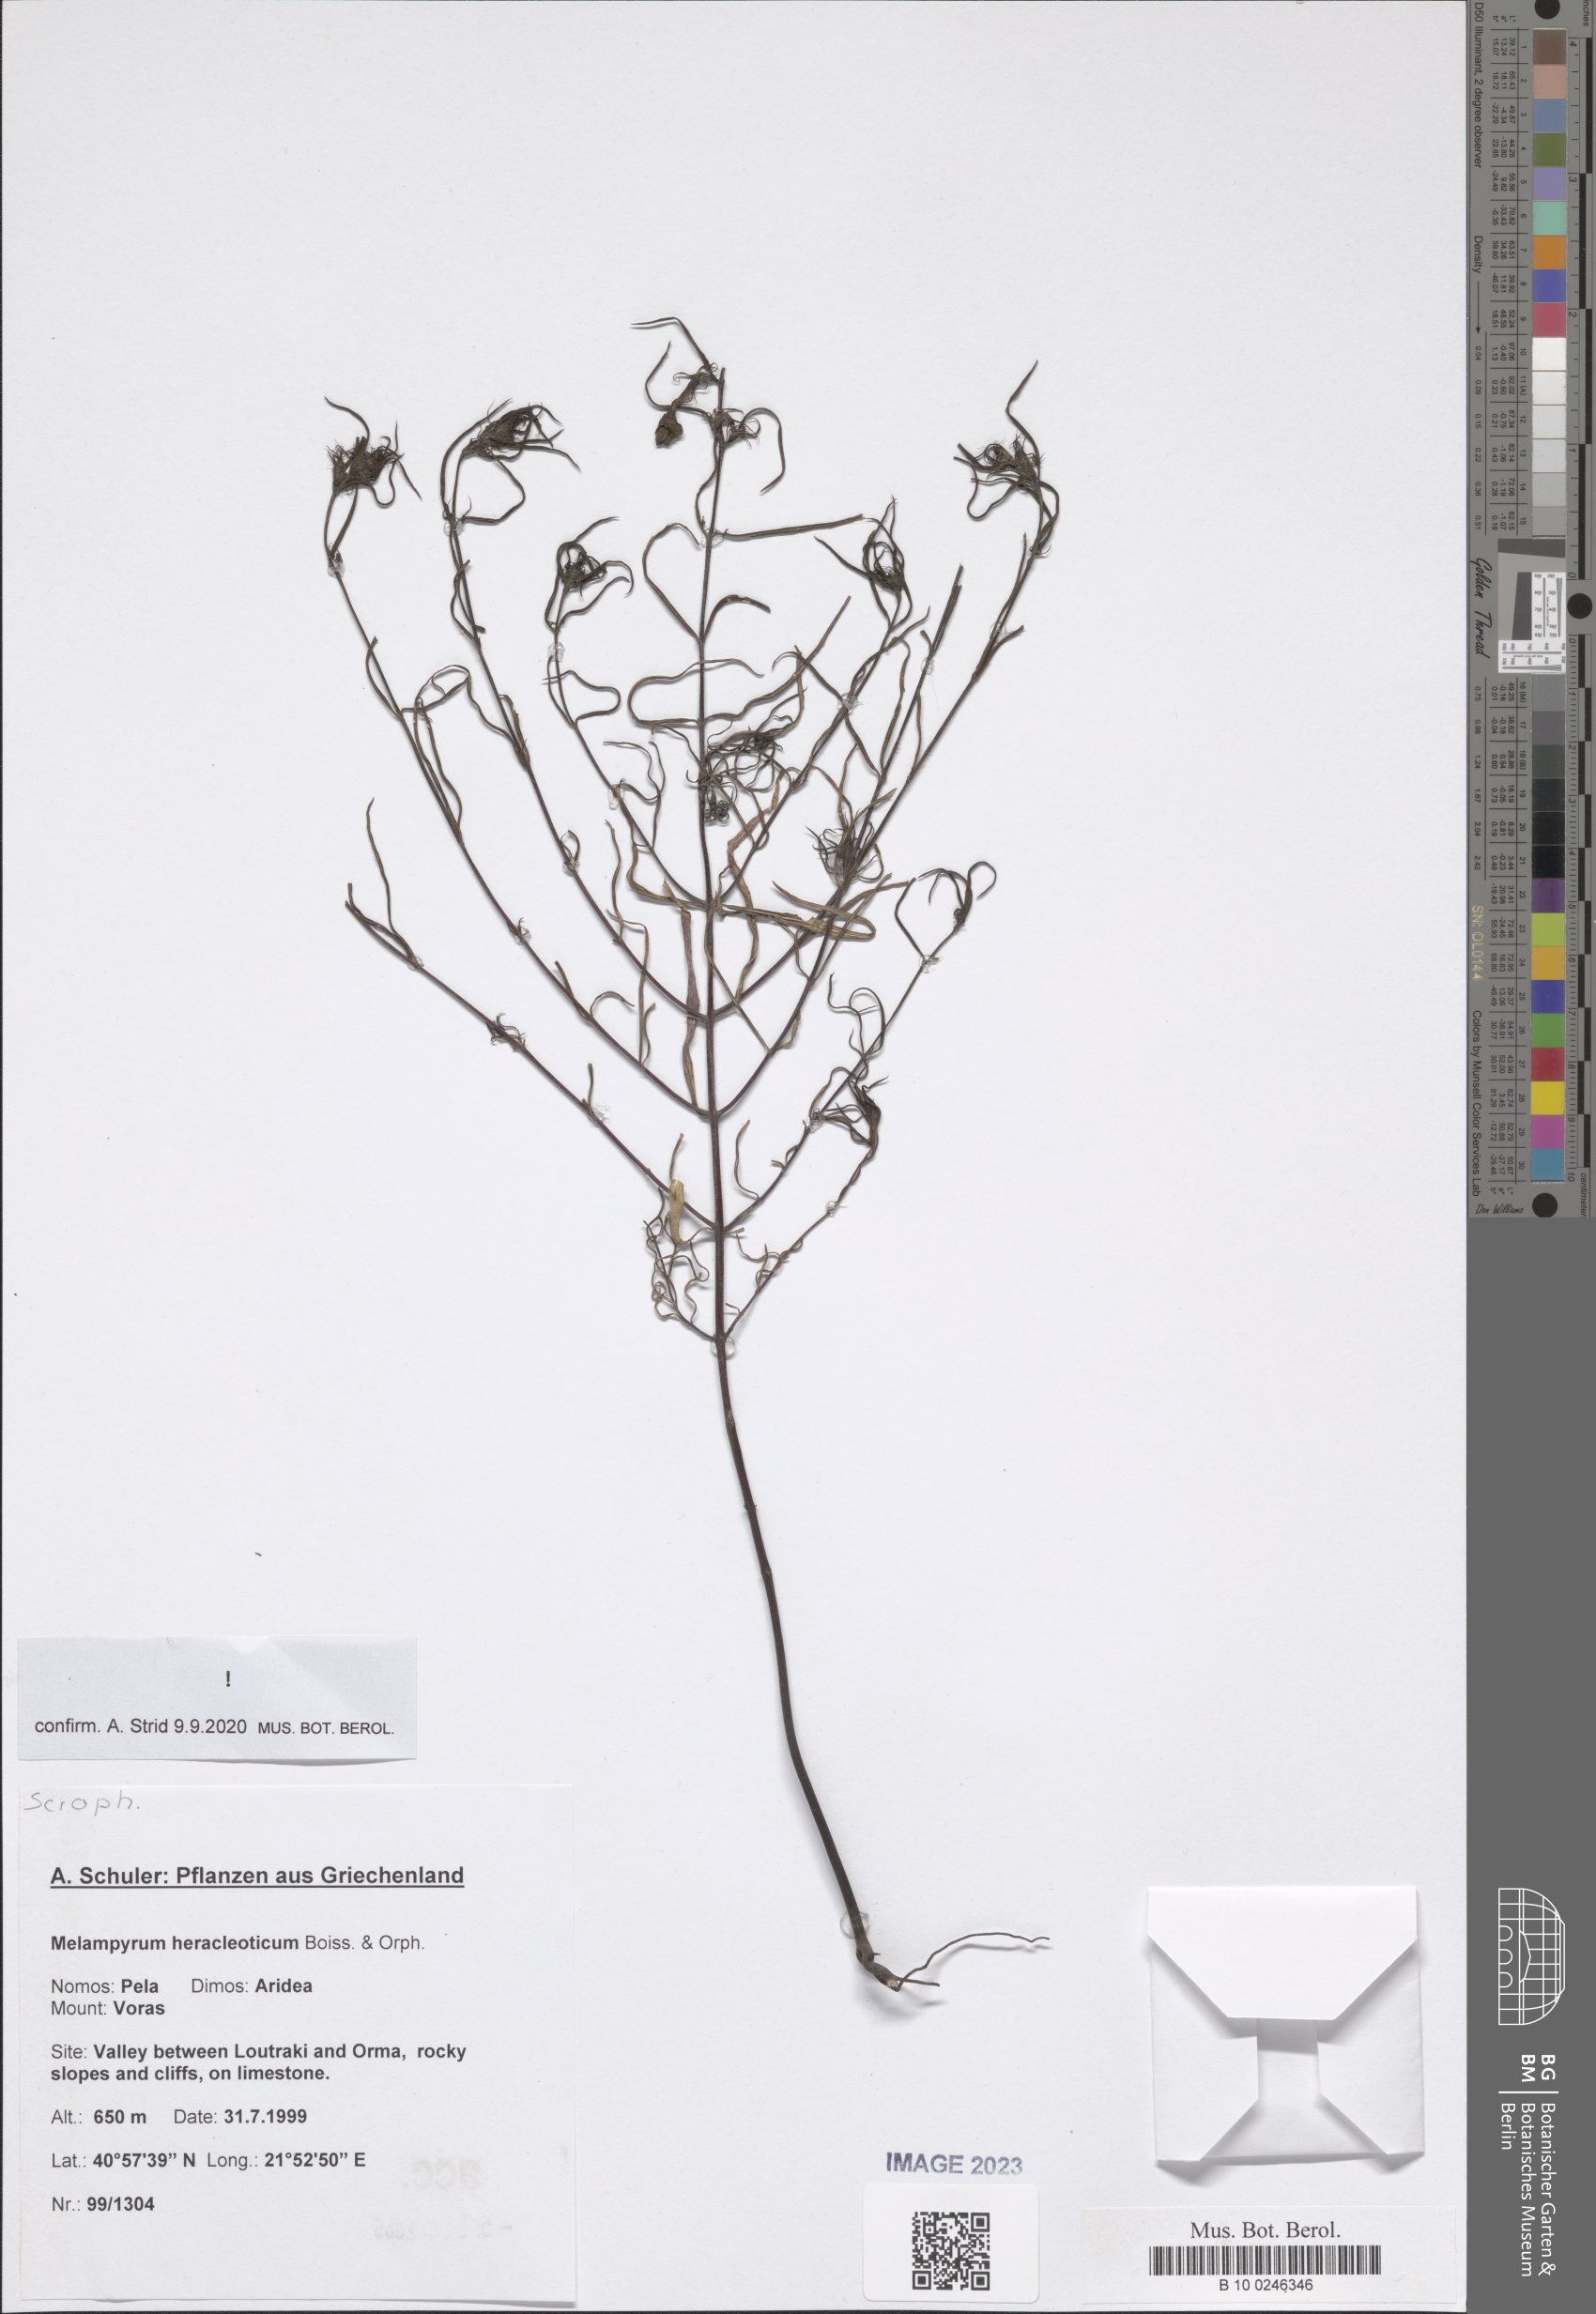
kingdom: Plantae
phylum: Tracheophyta
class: Magnoliopsida
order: Lamiales
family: Orobanchaceae
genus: Melampyrum
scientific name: Melampyrum heracleoticum
